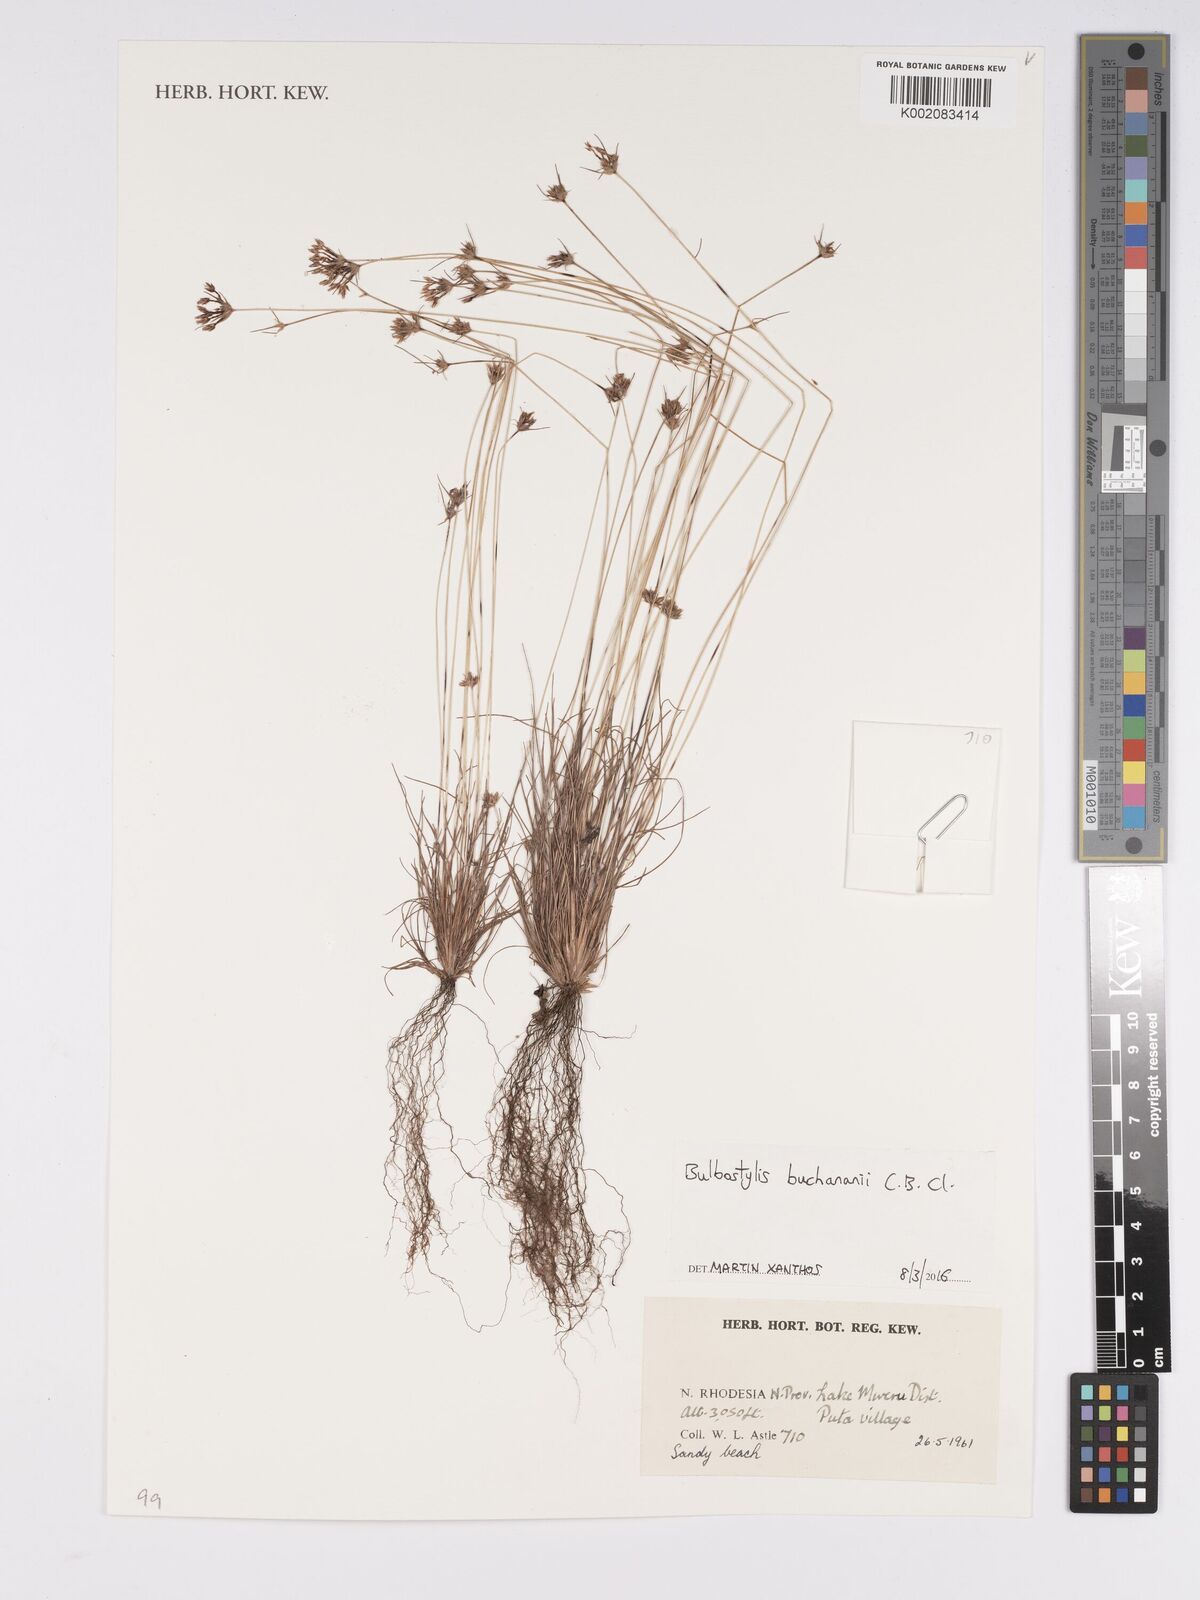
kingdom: Plantae
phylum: Tracheophyta
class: Liliopsida
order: Poales
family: Cyperaceae
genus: Bulbostylis
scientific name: Bulbostylis buchananii
